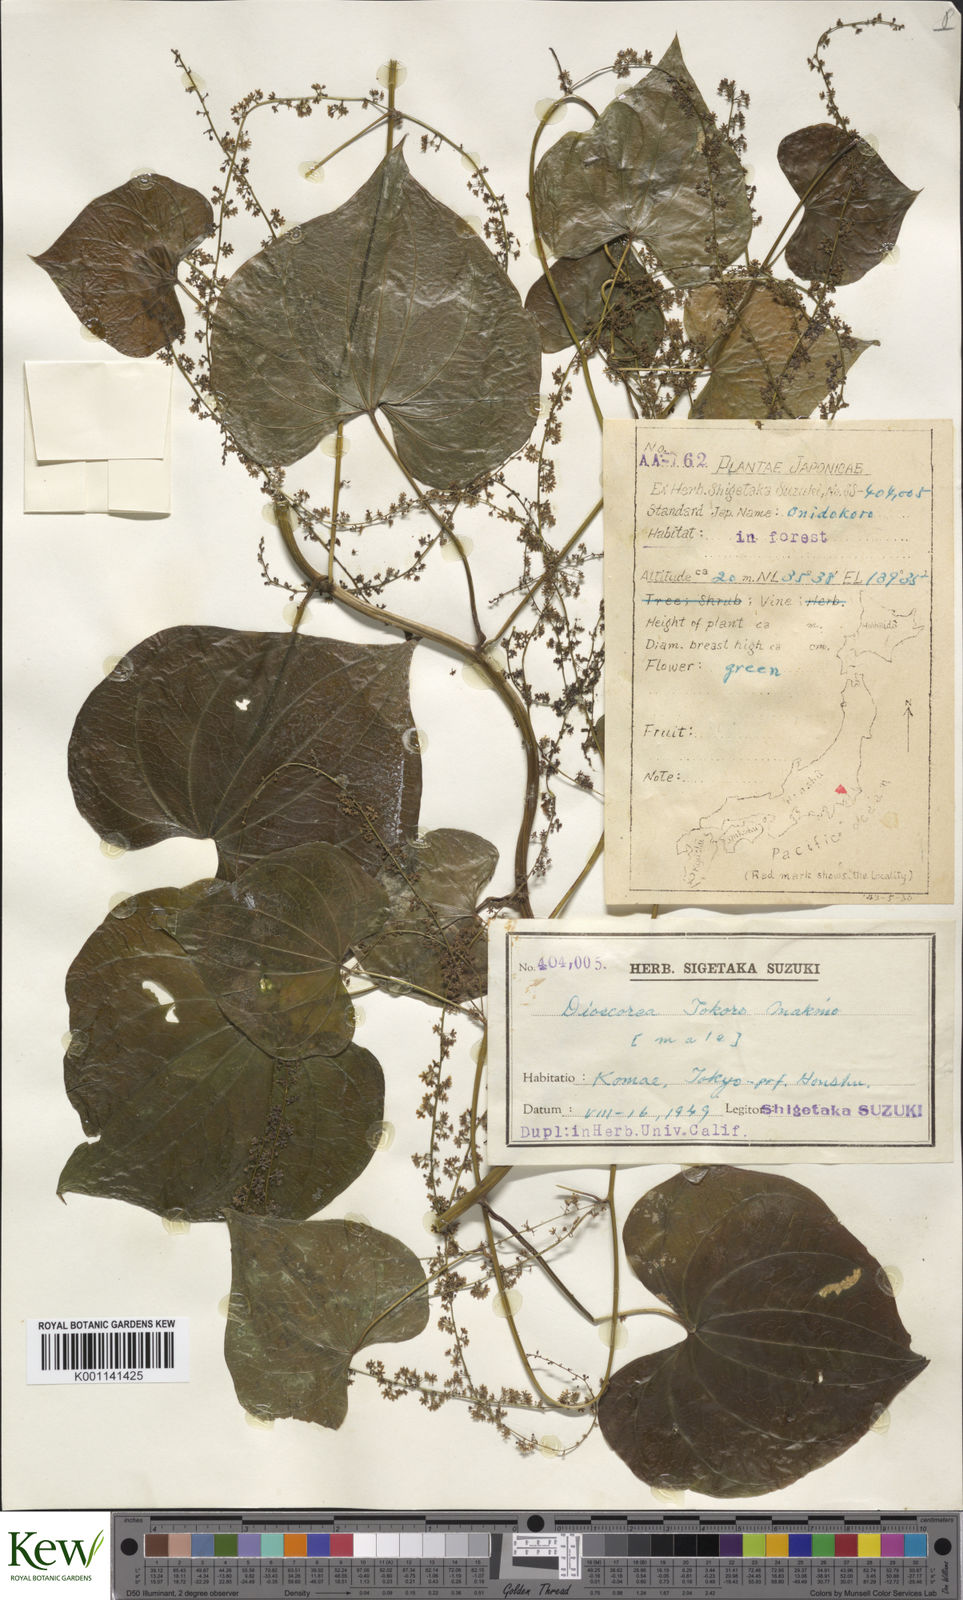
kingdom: Plantae
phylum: Tracheophyta
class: Liliopsida
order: Dioscoreales
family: Dioscoreaceae
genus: Dioscorea
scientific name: Dioscorea tokoro
